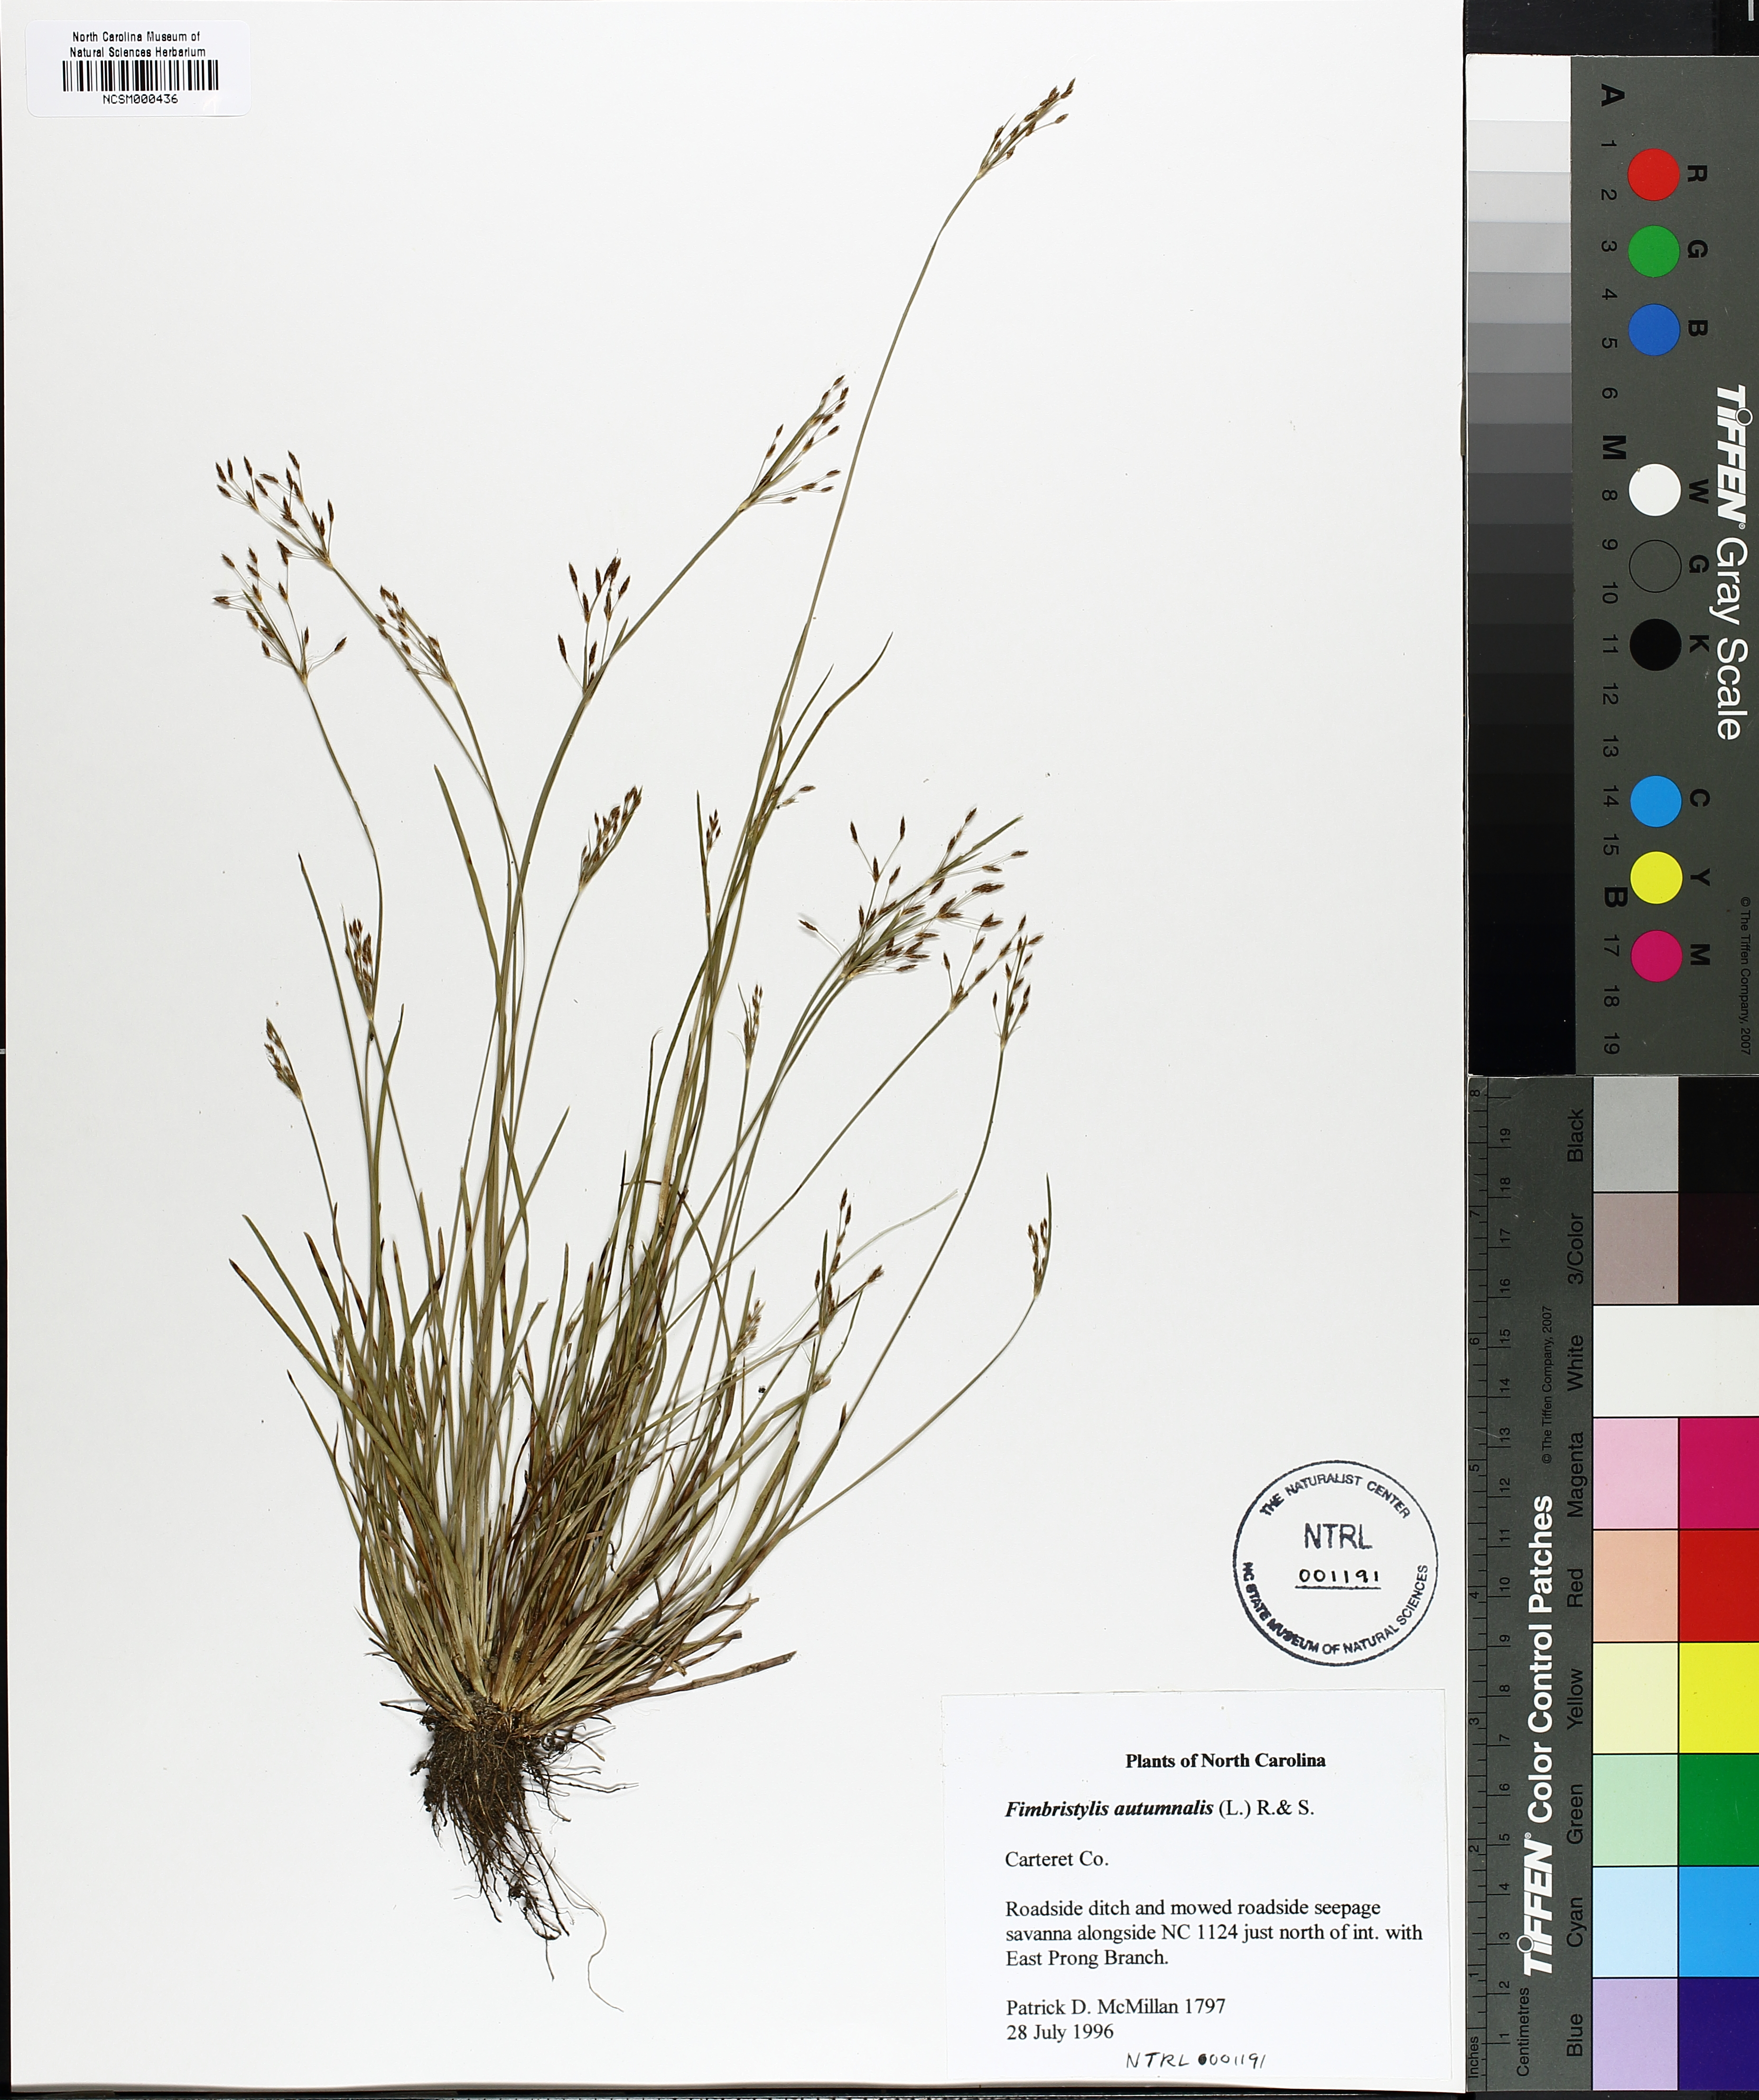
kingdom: Plantae
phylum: Tracheophyta
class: Liliopsida
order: Poales
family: Cyperaceae
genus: Fimbristylis
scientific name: Fimbristylis autumnalis
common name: Slender fimbristylis
